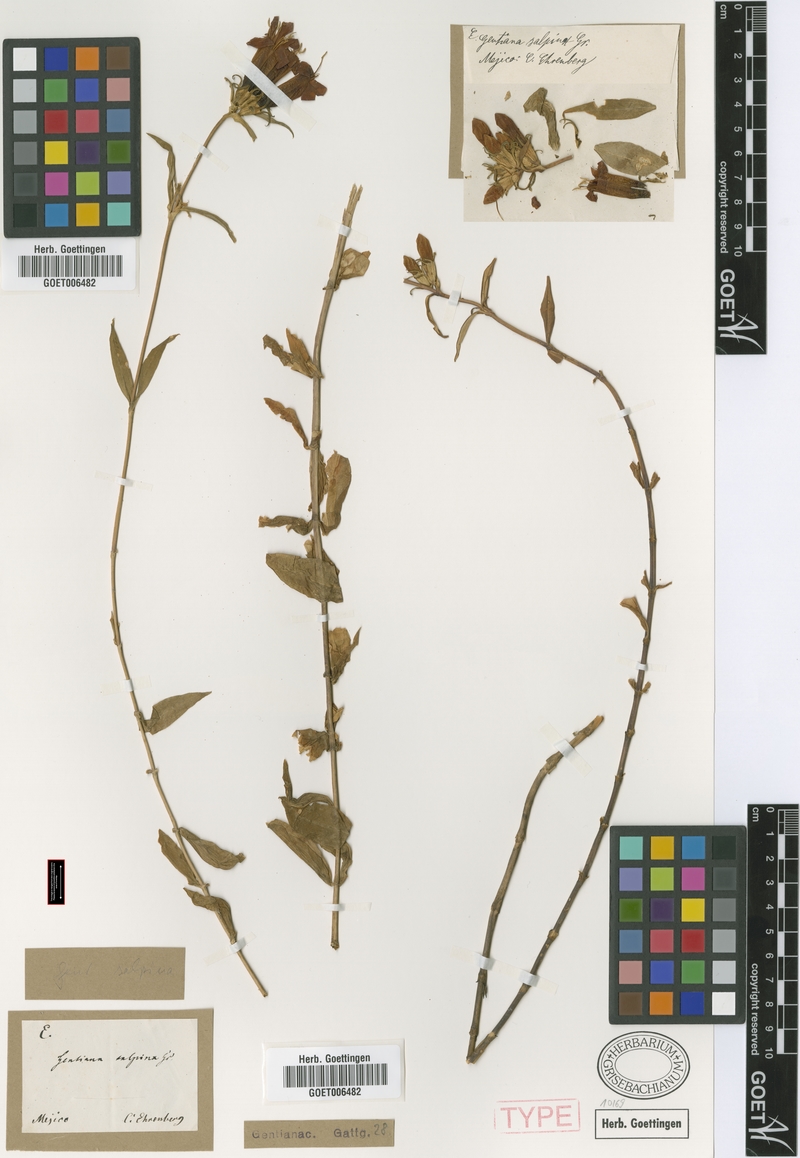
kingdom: Plantae
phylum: Tracheophyta
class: Magnoliopsida
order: Gentianales
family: Gentianaceae
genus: Gentiana
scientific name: Gentiana caliculata
